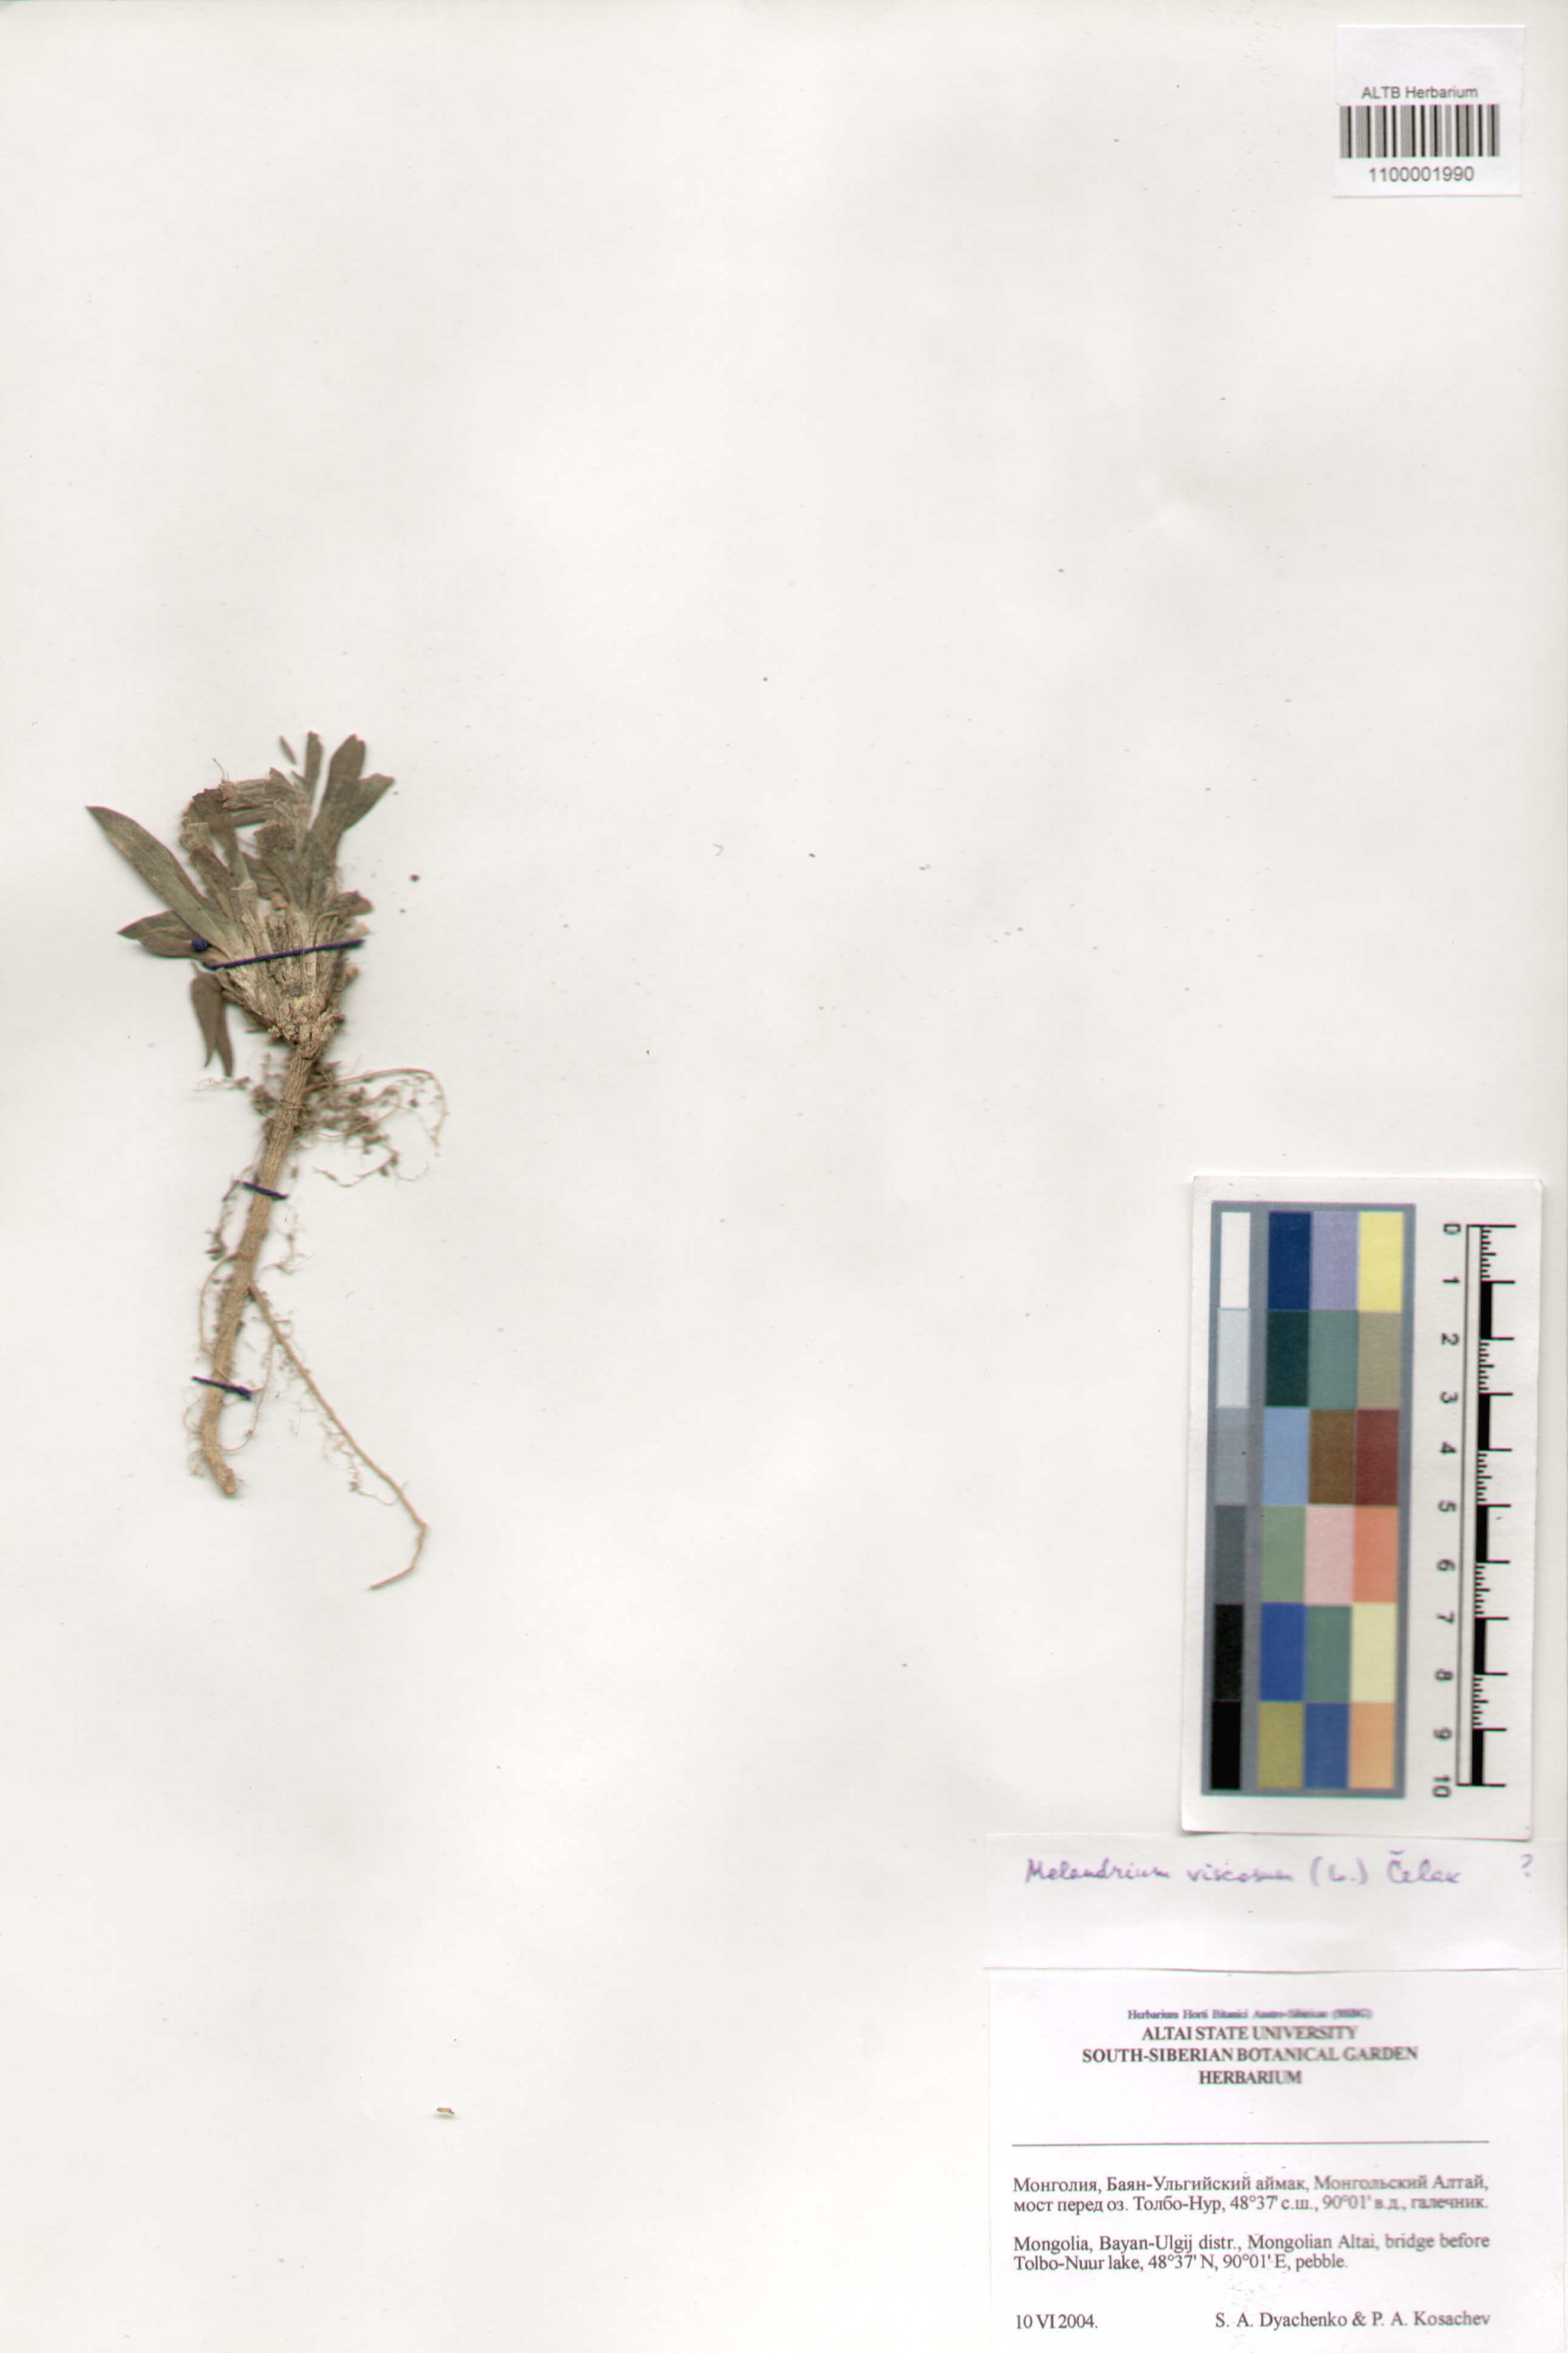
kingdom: Plantae
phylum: Tracheophyta
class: Magnoliopsida
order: Caryophyllales
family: Caryophyllaceae
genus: Silene
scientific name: Silene viscosa
